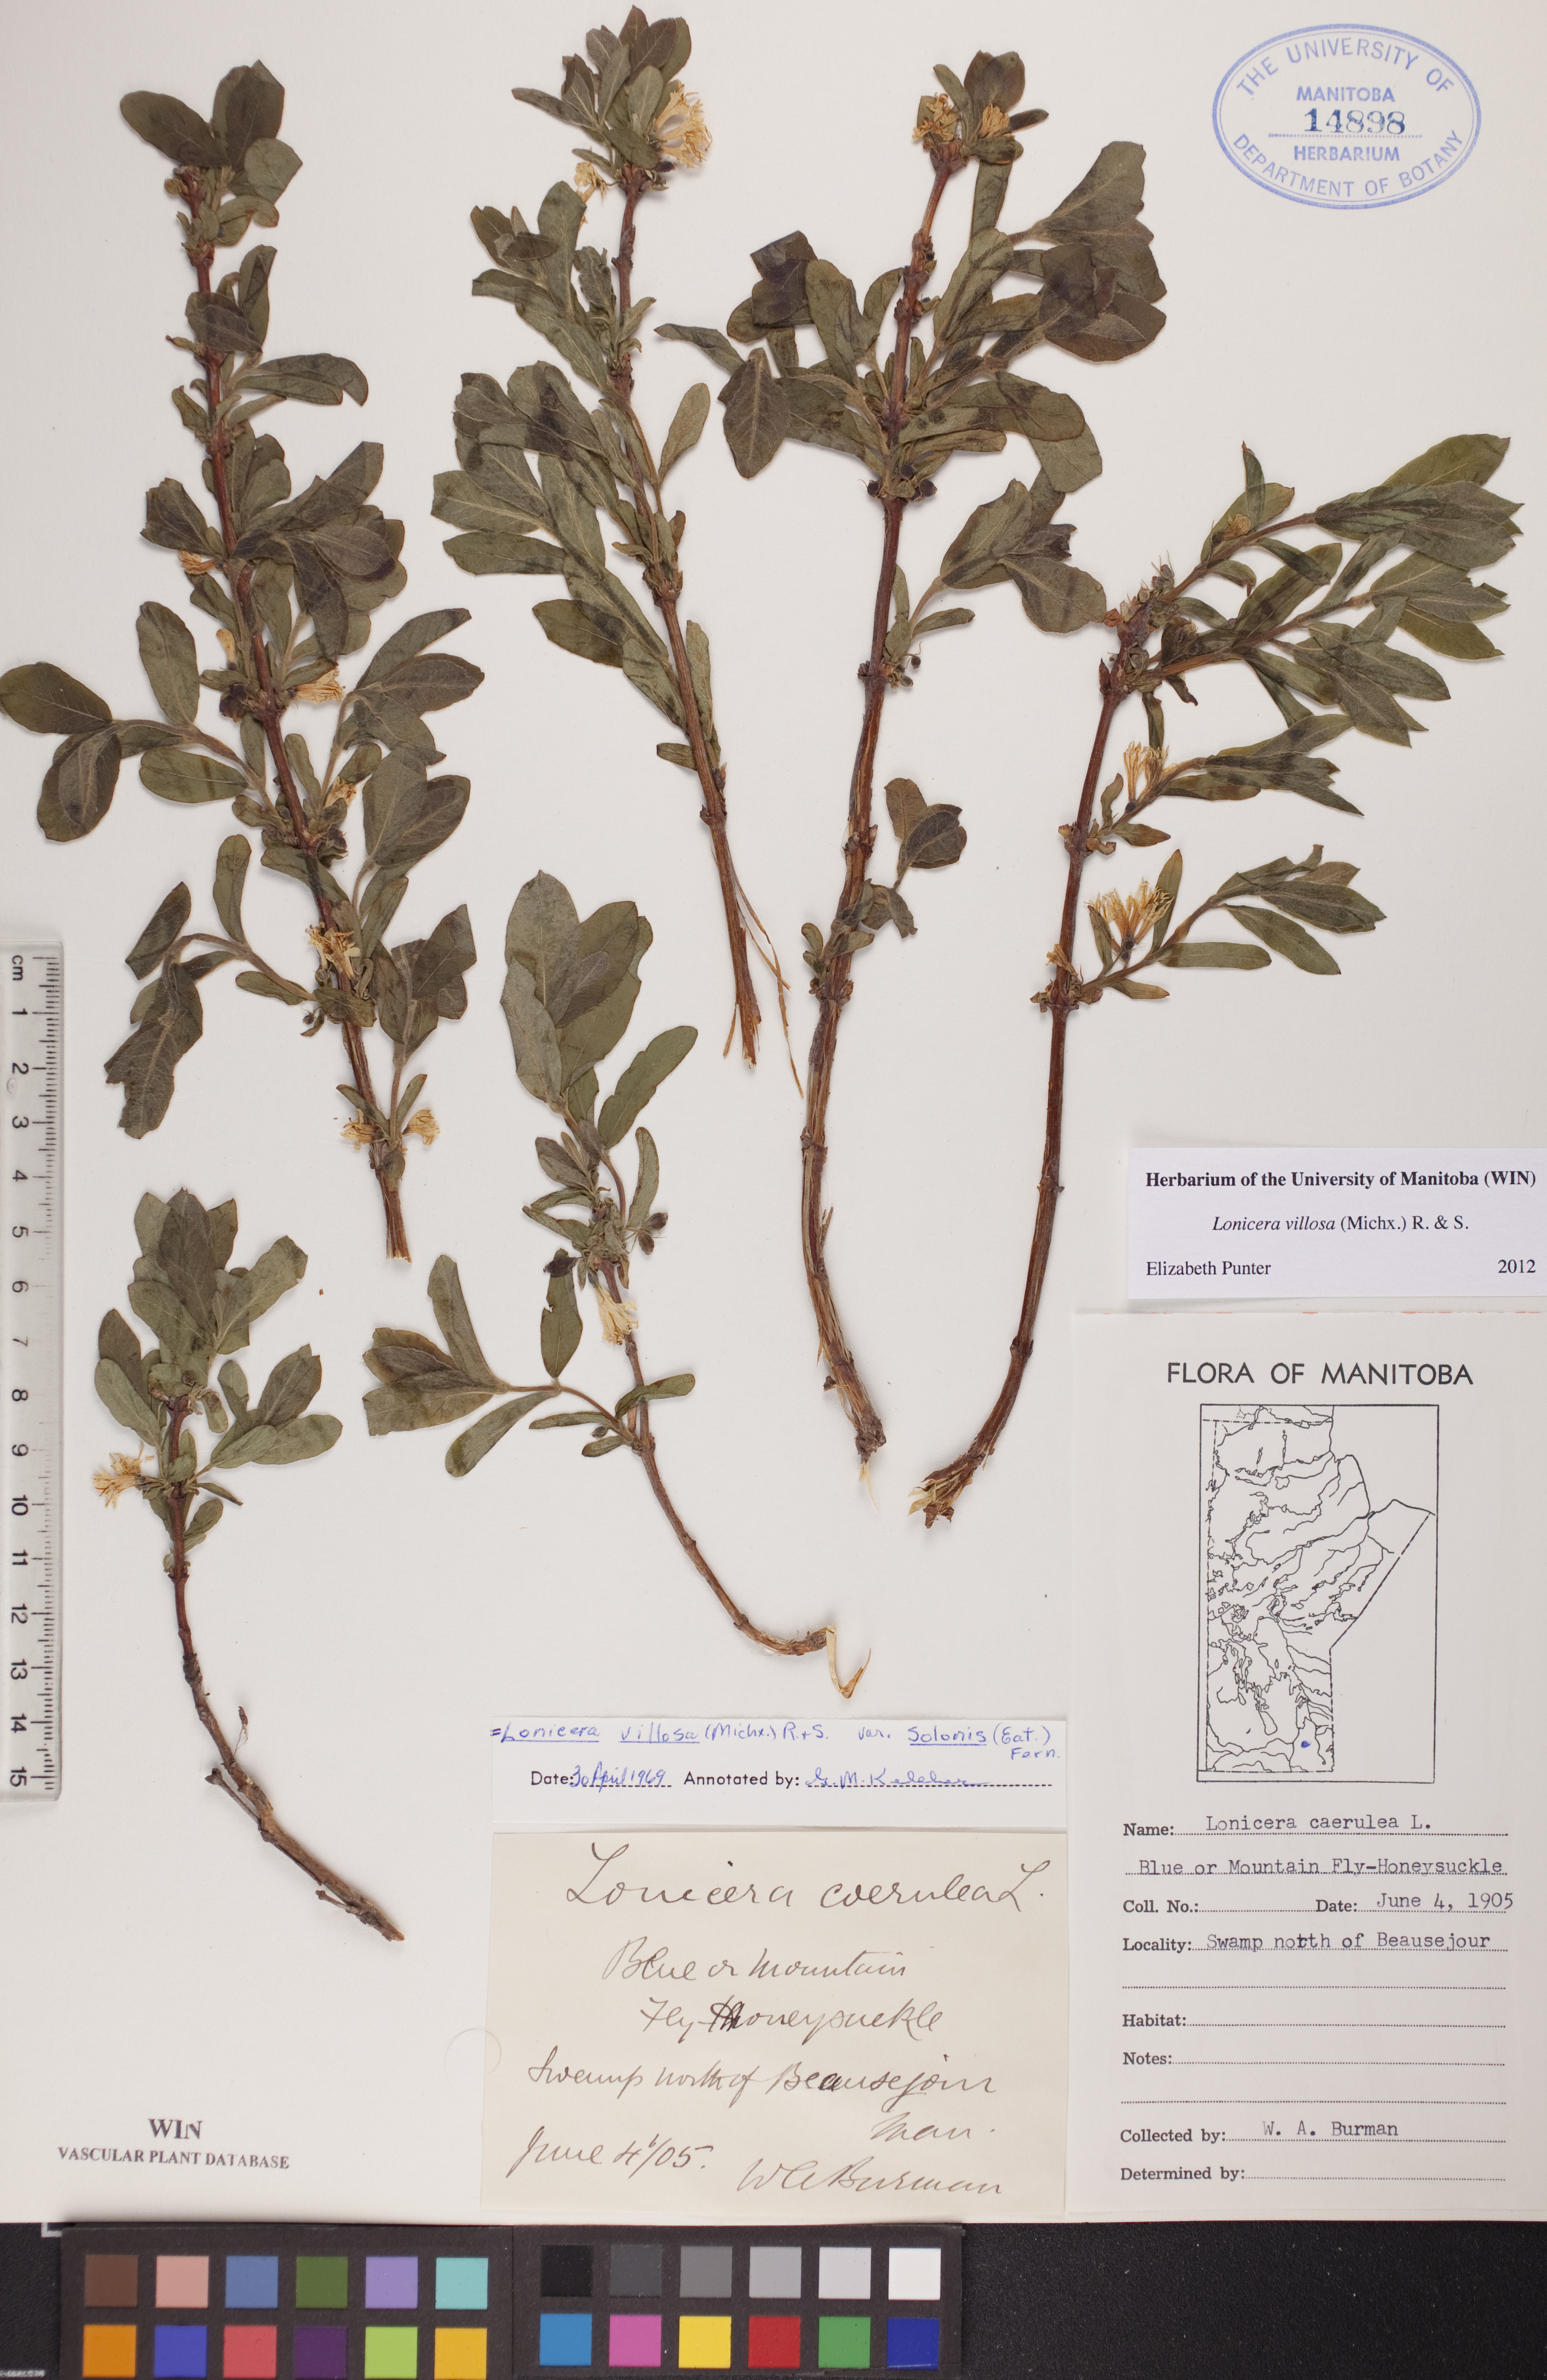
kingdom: Plantae
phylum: Tracheophyta
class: Magnoliopsida
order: Dipsacales
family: Caprifoliaceae
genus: Lonicera
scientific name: Lonicera villosa
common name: Mountain fly-honeysuckle
